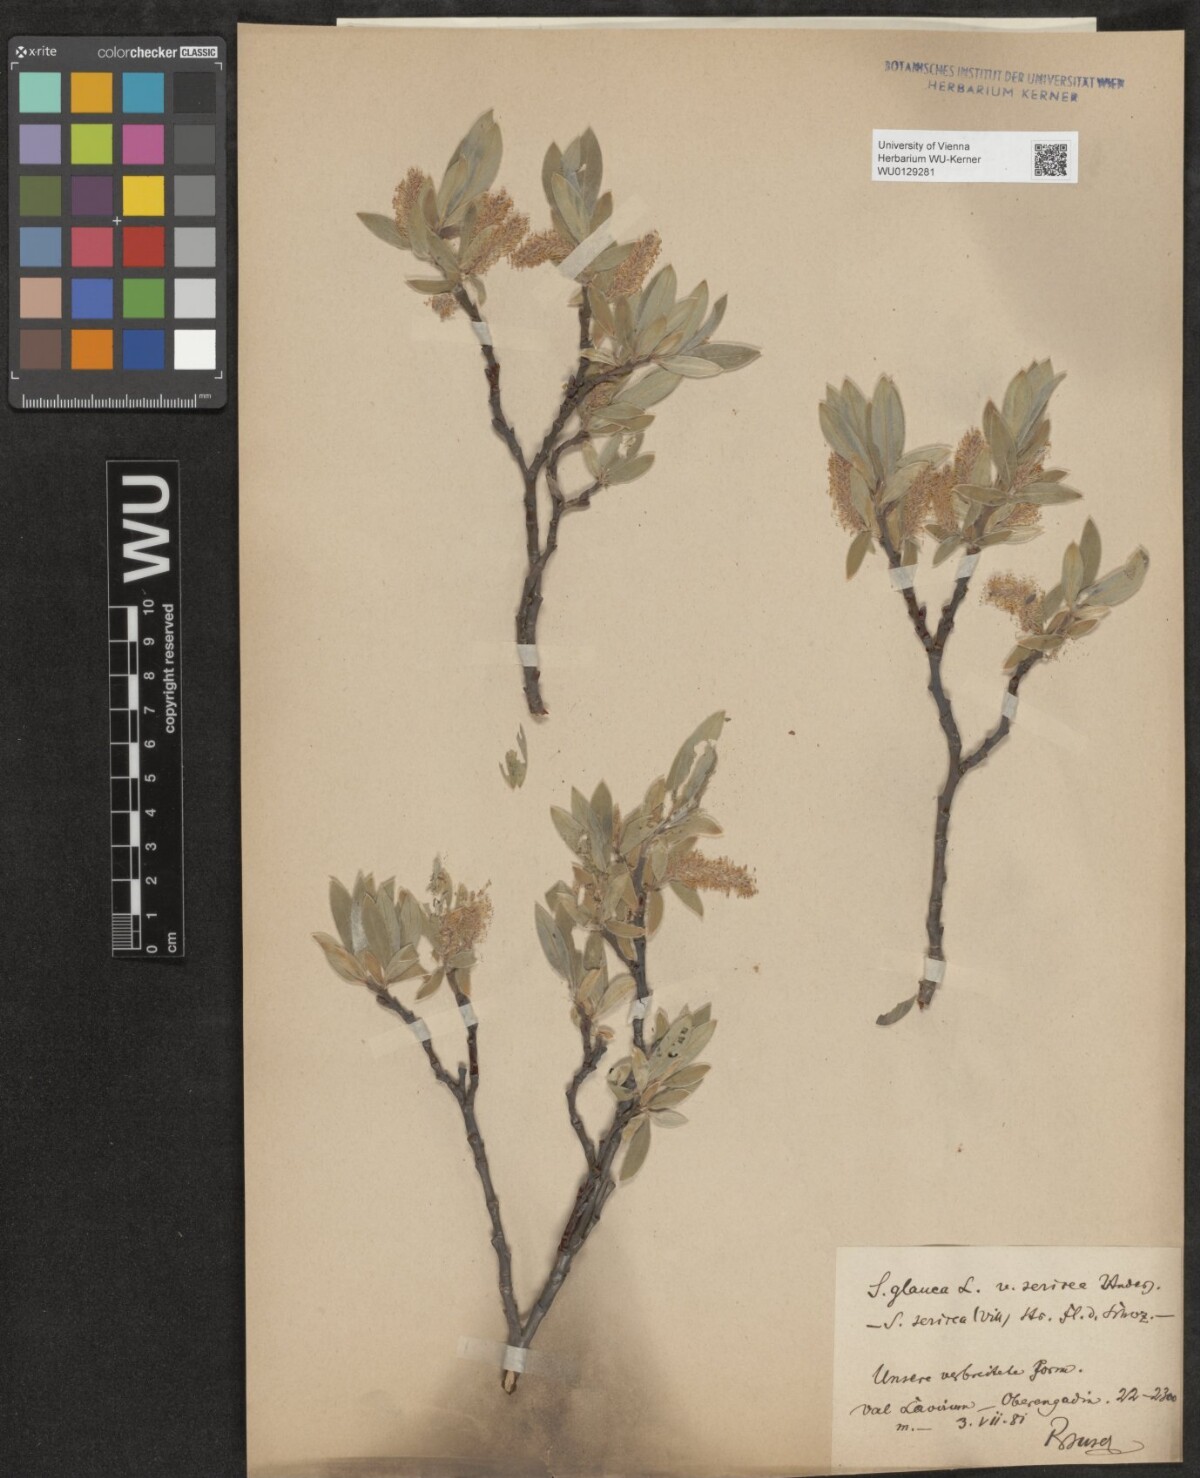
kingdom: Plantae
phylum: Tracheophyta
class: Magnoliopsida
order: Malpighiales
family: Salicaceae
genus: Salix
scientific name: Salix glauca
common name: Glaucous willow
